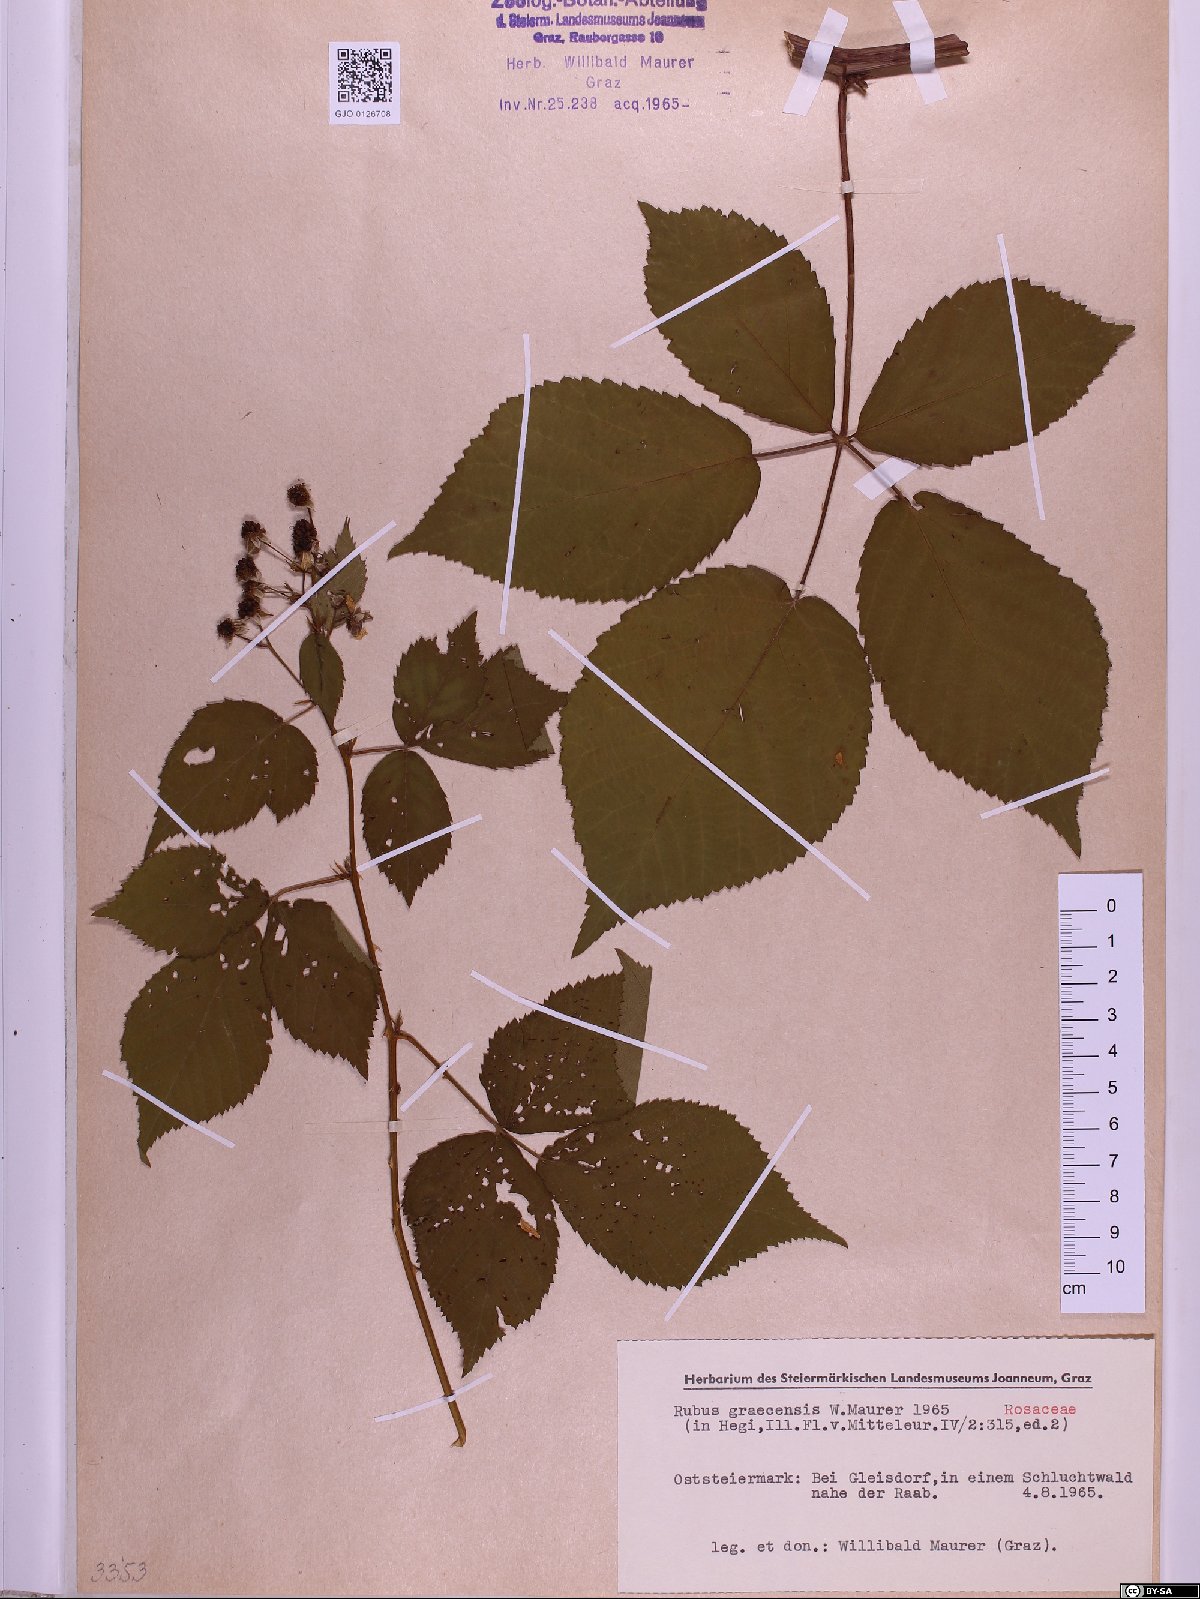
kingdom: Plantae
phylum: Tracheophyta
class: Magnoliopsida
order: Rosales
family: Rosaceae
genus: Rubus
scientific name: Rubus graecensis
